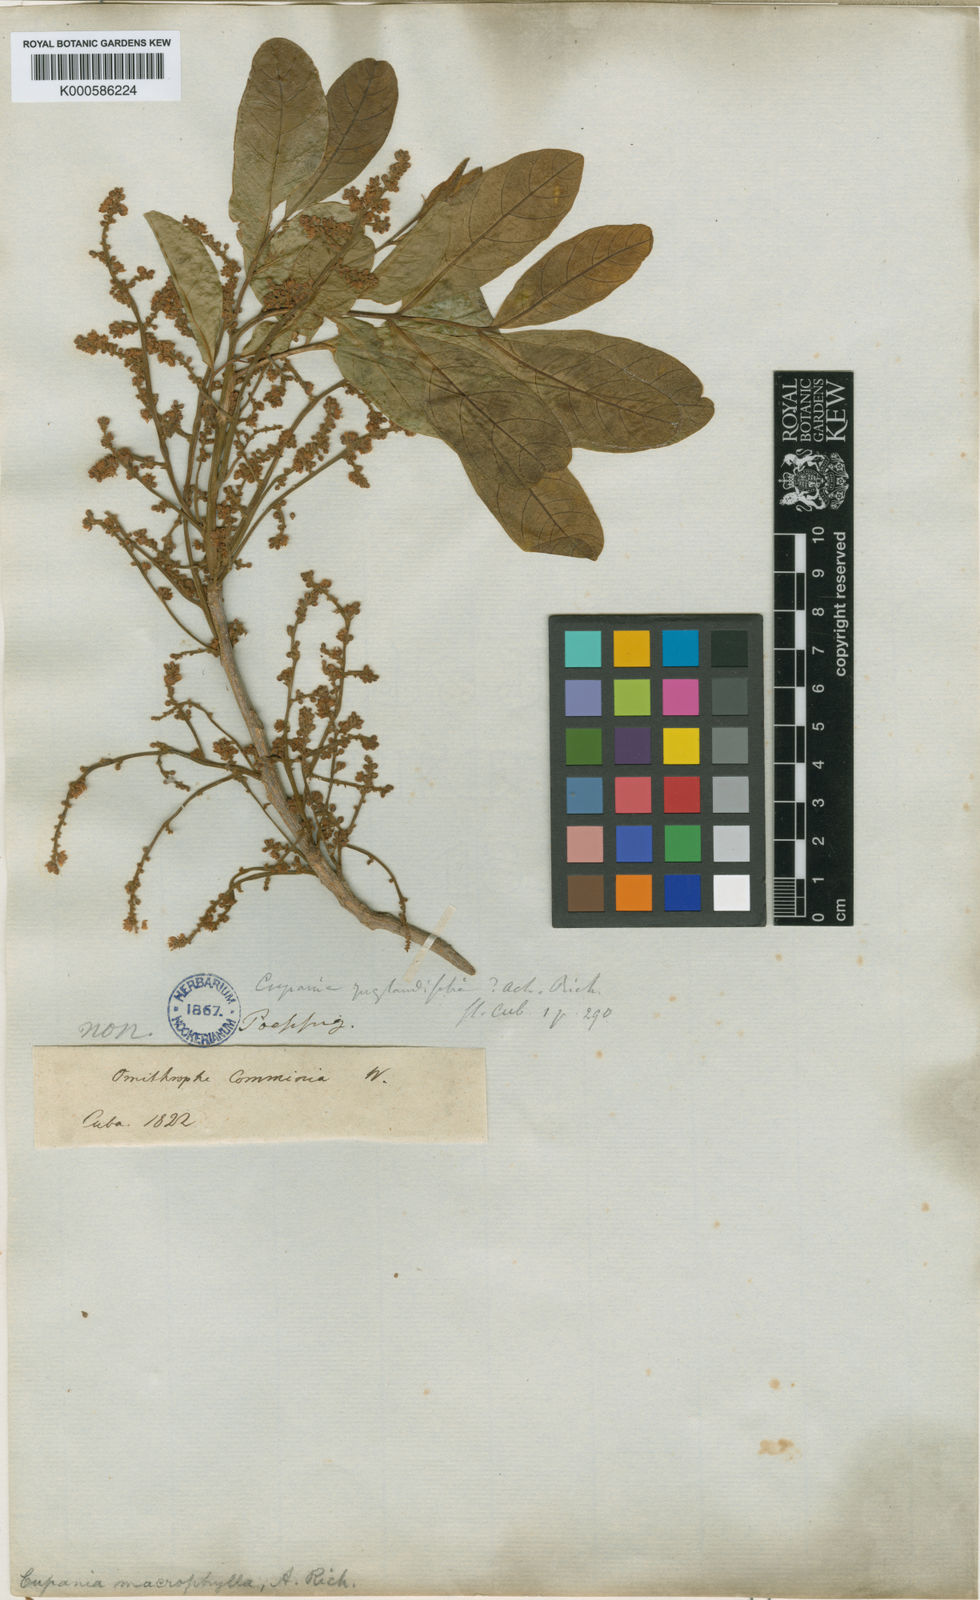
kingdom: Plantae
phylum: Tracheophyta
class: Magnoliopsida
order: Sapindales
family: Sapindaceae
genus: Cupania
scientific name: Cupania juglandifolia
